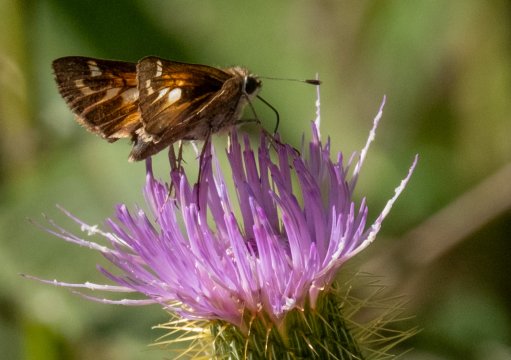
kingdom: Animalia
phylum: Arthropoda
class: Insecta
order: Lepidoptera
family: Hesperiidae
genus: Atalopedes
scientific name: Atalopedes campestris
